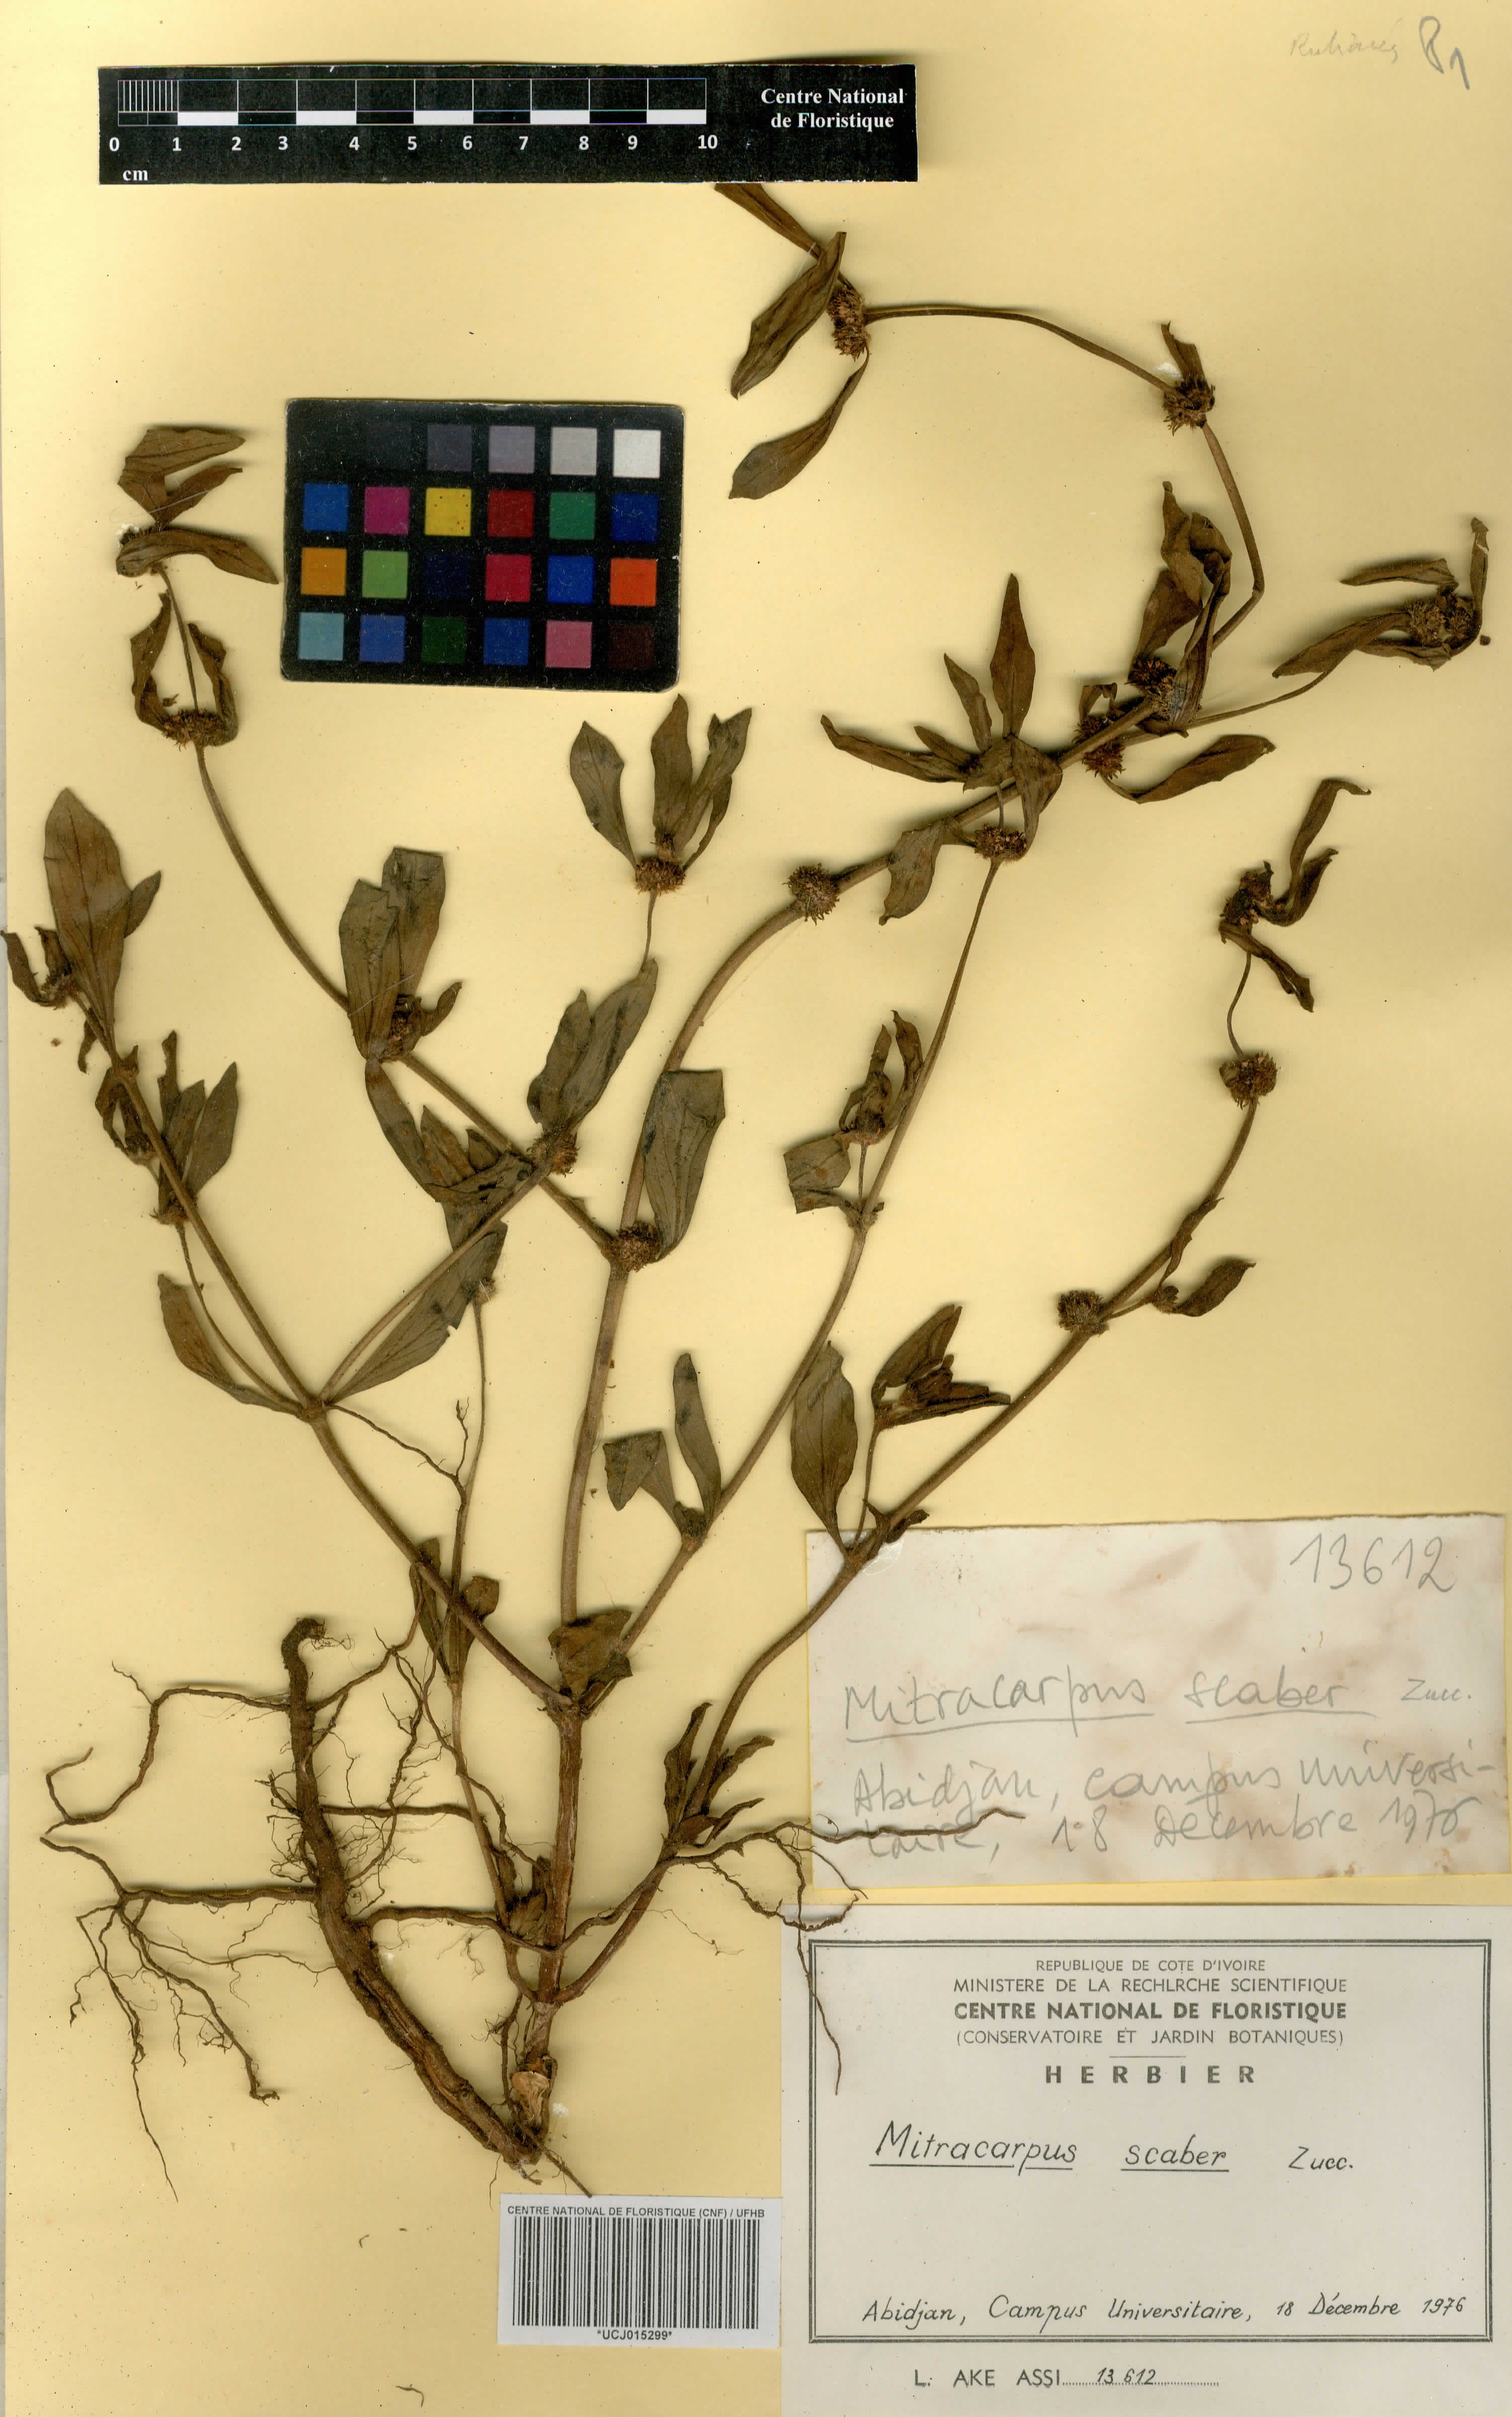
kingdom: Plantae
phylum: Tracheophyta
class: Magnoliopsida
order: Gentianales
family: Rubiaceae
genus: Mitracarpus
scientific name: Mitracarpus hirtus
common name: Tropical girdlepod
